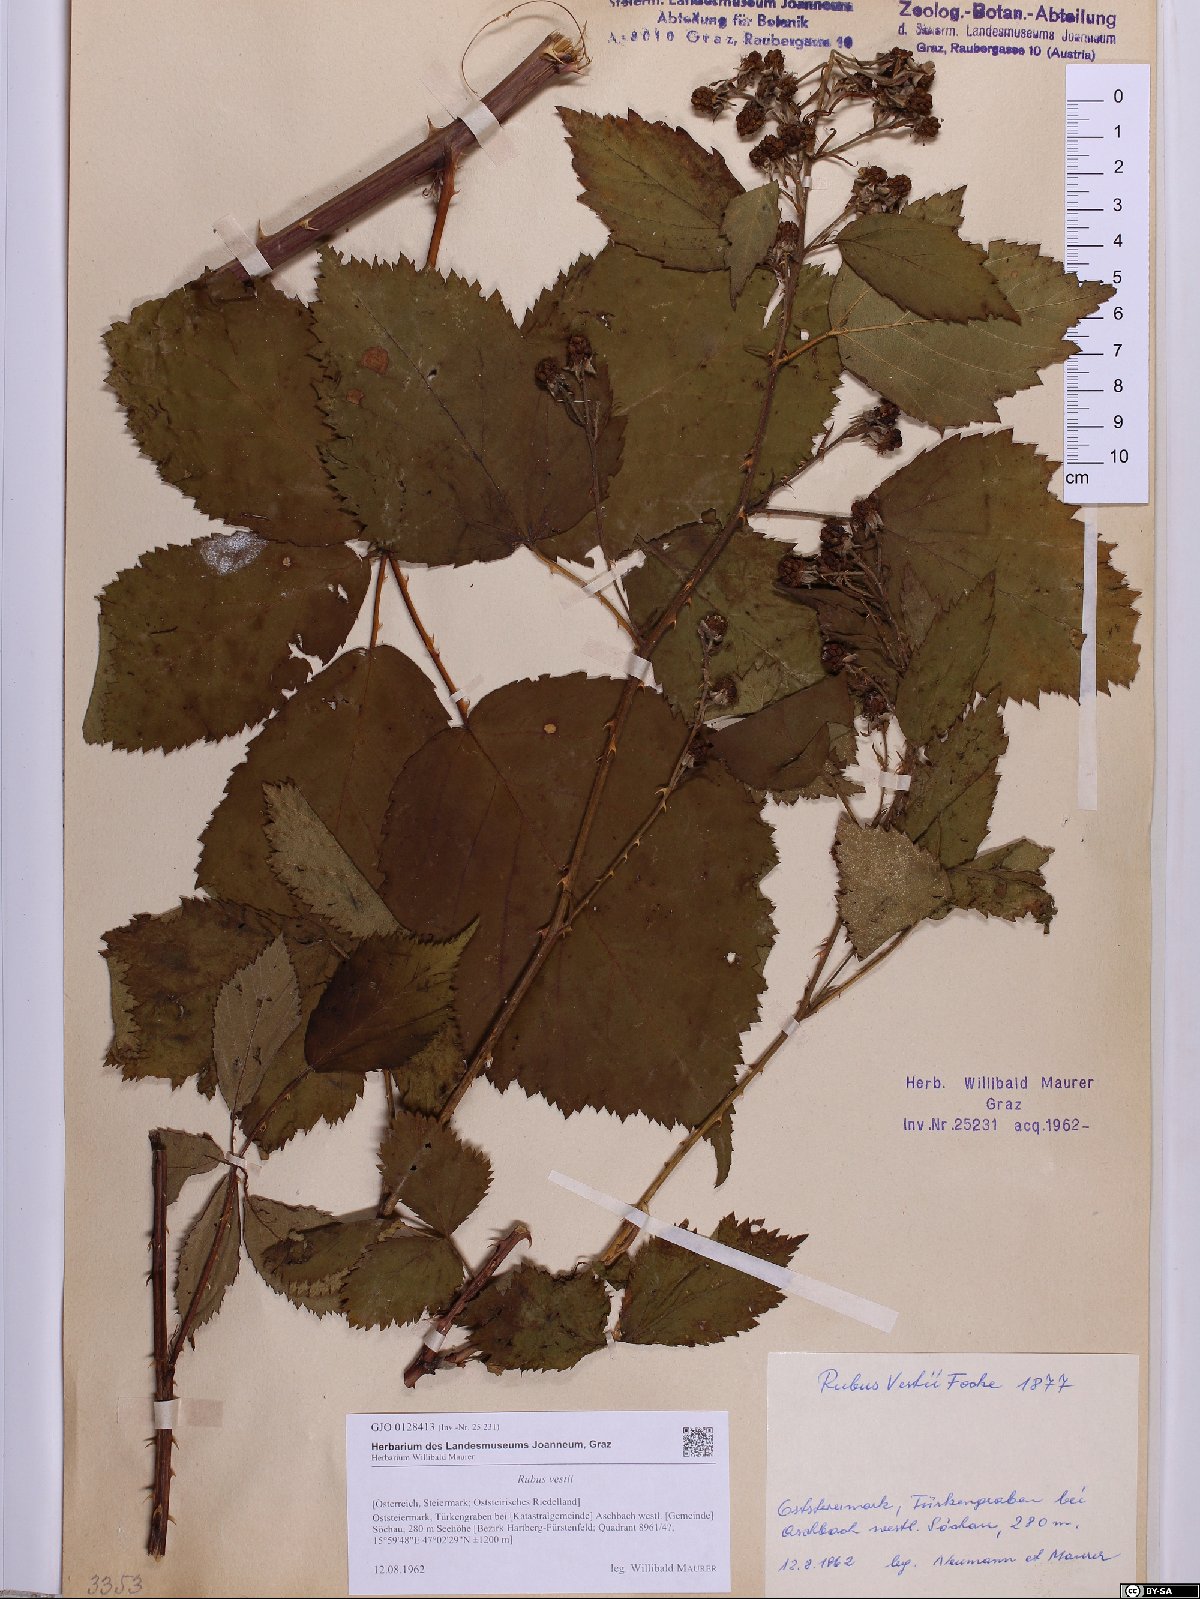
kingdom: Plantae
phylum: Tracheophyta
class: Magnoliopsida
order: Rosales
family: Rosaceae
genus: Rubus
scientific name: Rubus constrictus
